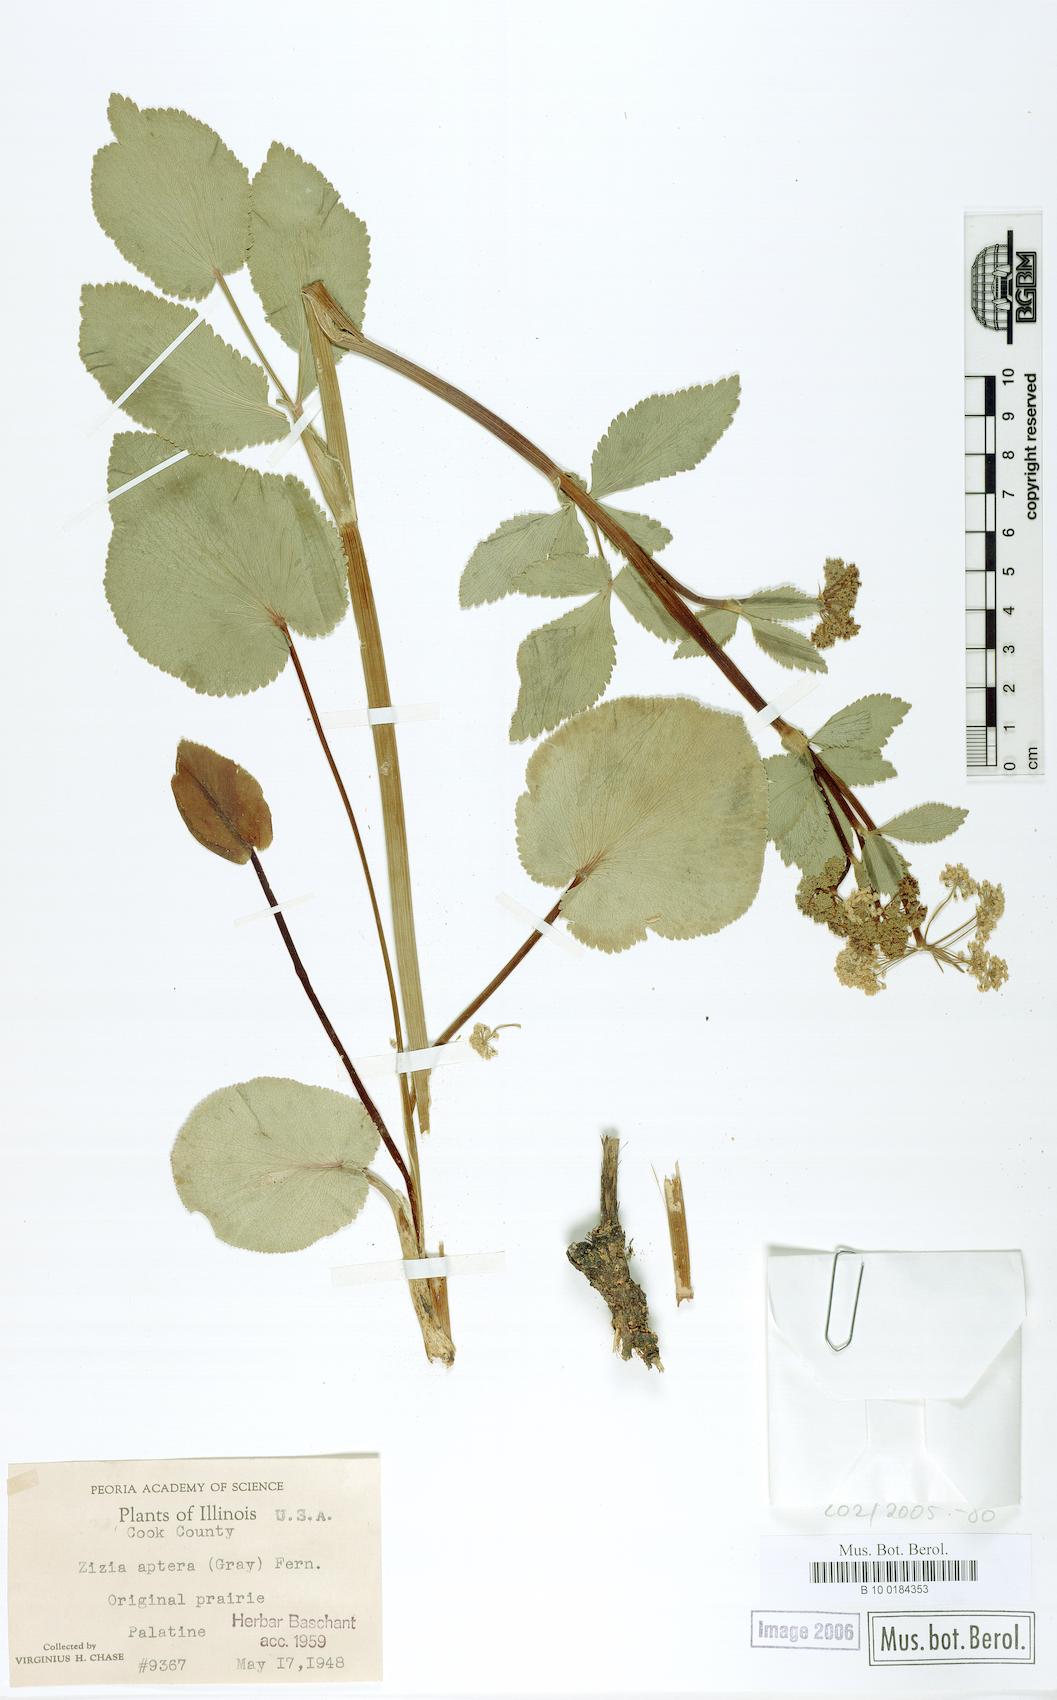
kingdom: Plantae
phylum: Tracheophyta
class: Magnoliopsida
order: Apiales
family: Apiaceae
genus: Zizia
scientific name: Zizia aptera
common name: Heart-leaved alexanders
